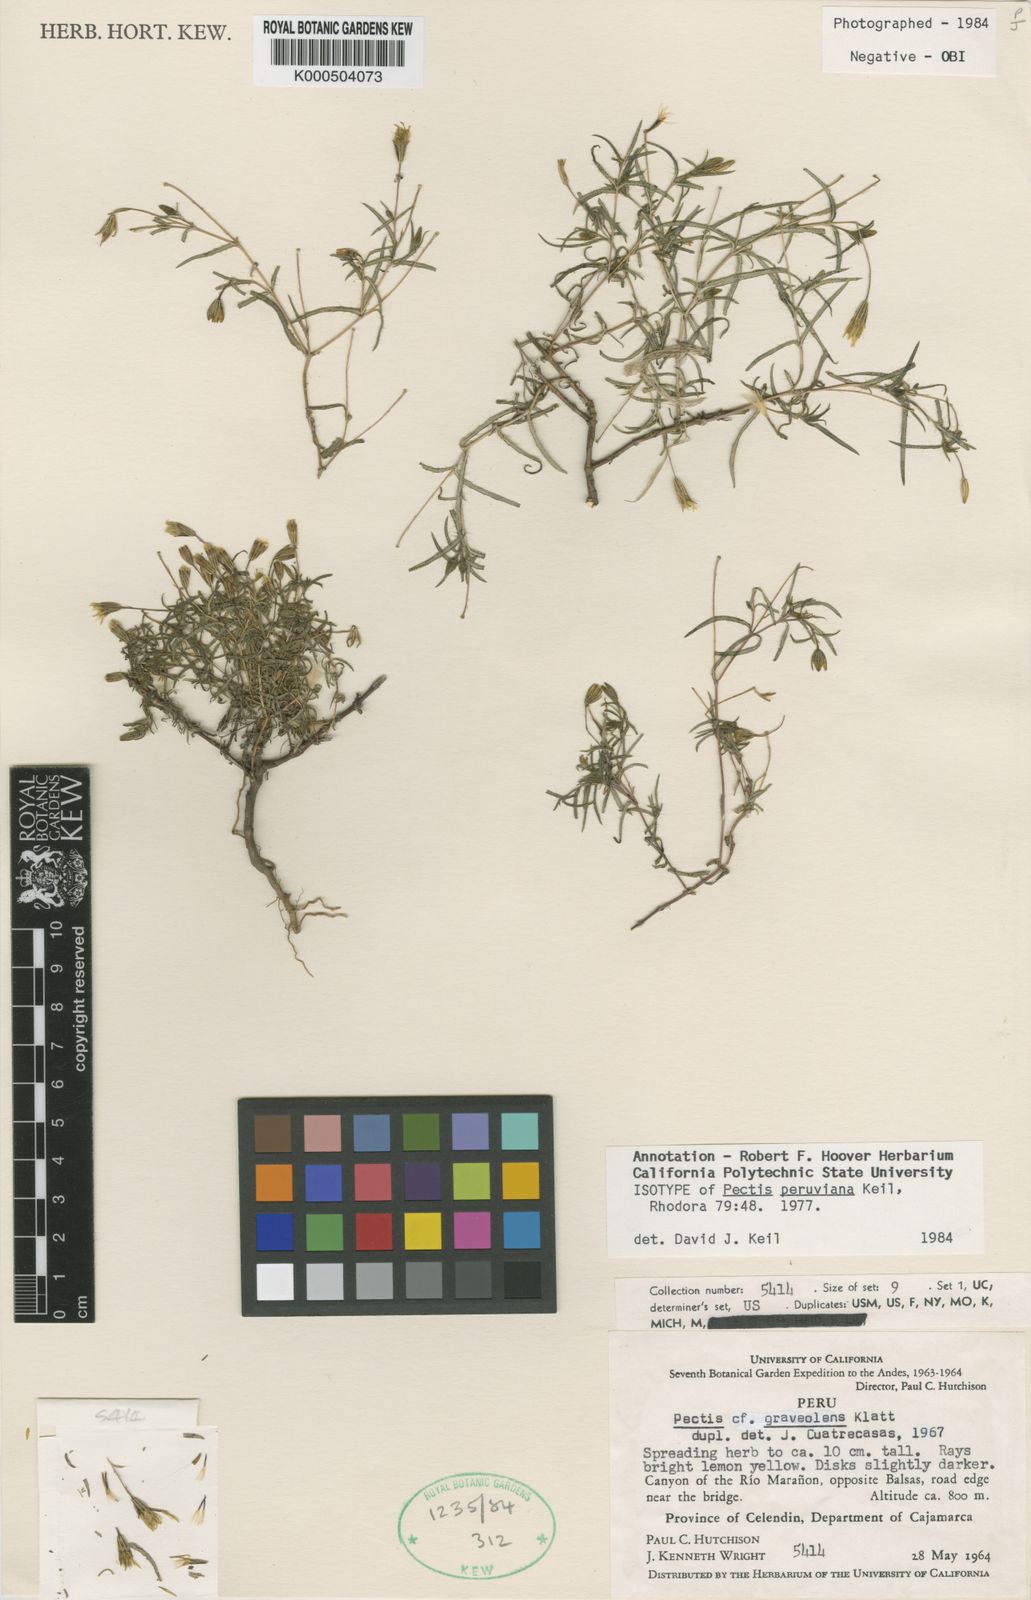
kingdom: Plantae
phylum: Tracheophyta
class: Magnoliopsida
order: Asterales
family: Asteraceae
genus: Pectis
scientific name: Pectis peruviana
